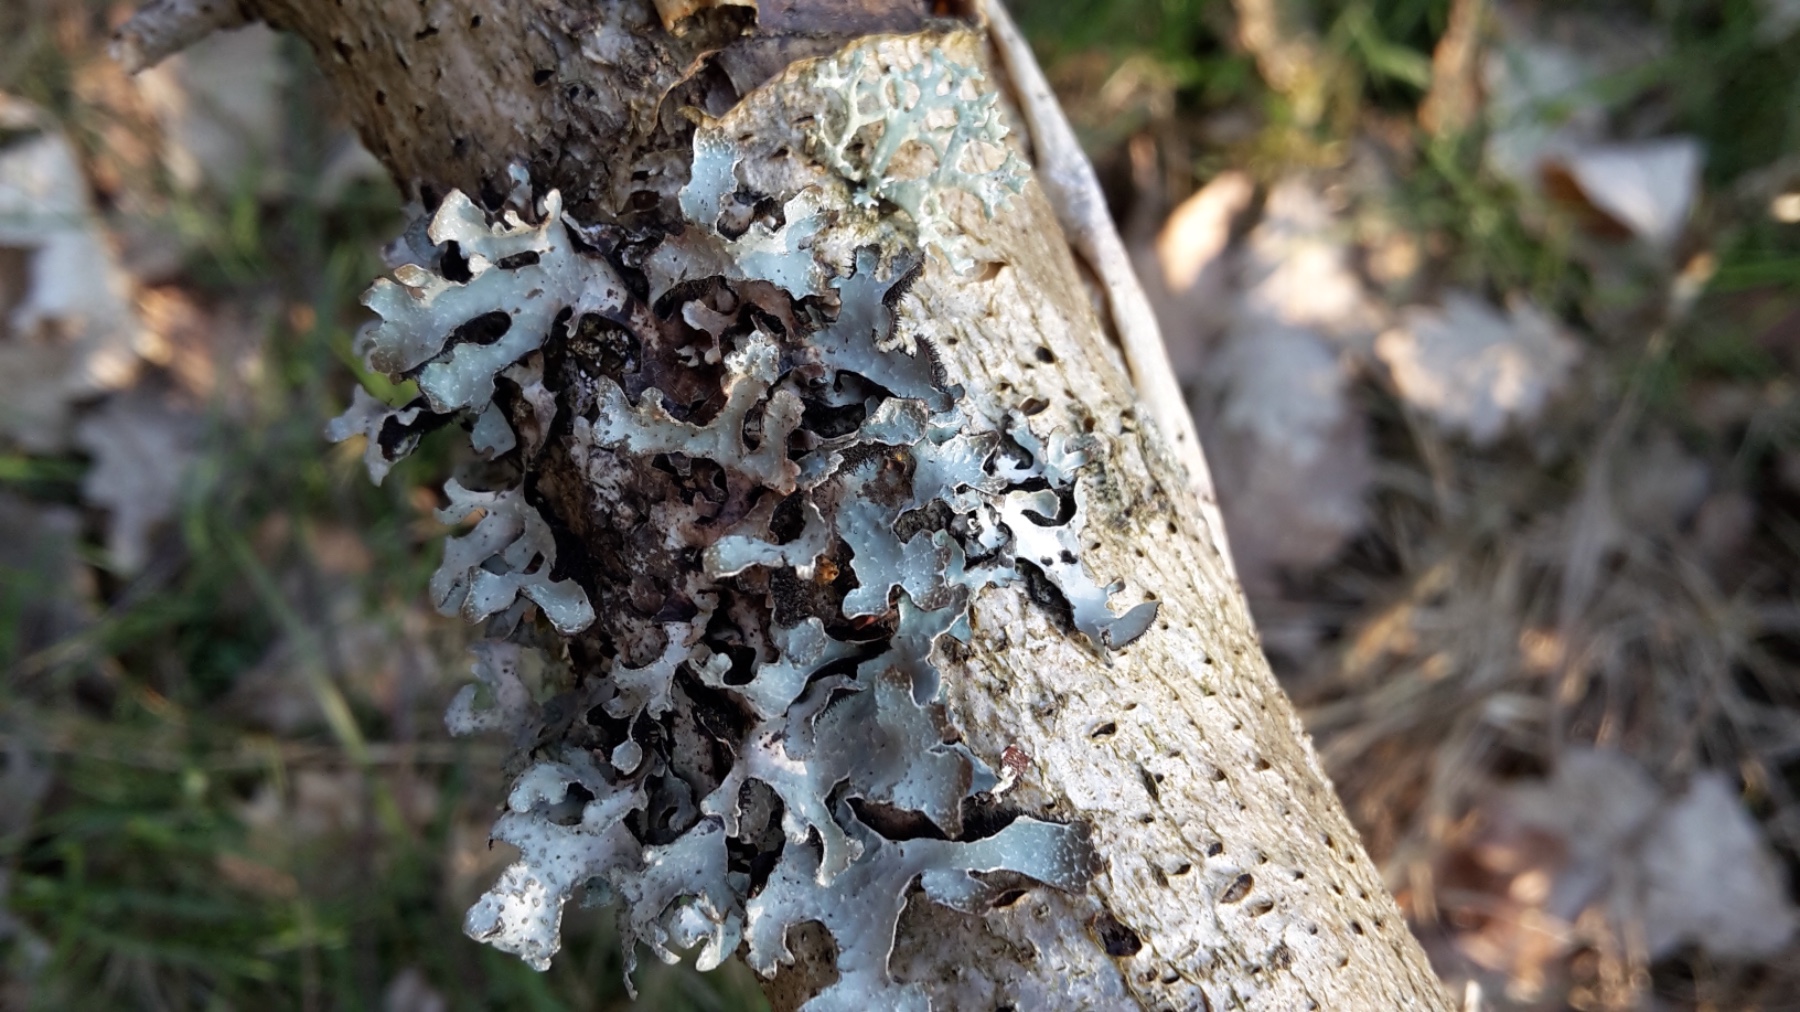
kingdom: Fungi
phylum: Ascomycota
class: Lecanoromycetes
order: Lecanorales
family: Parmeliaceae
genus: Parmelia
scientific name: Parmelia sulcata
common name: rynket skållav
